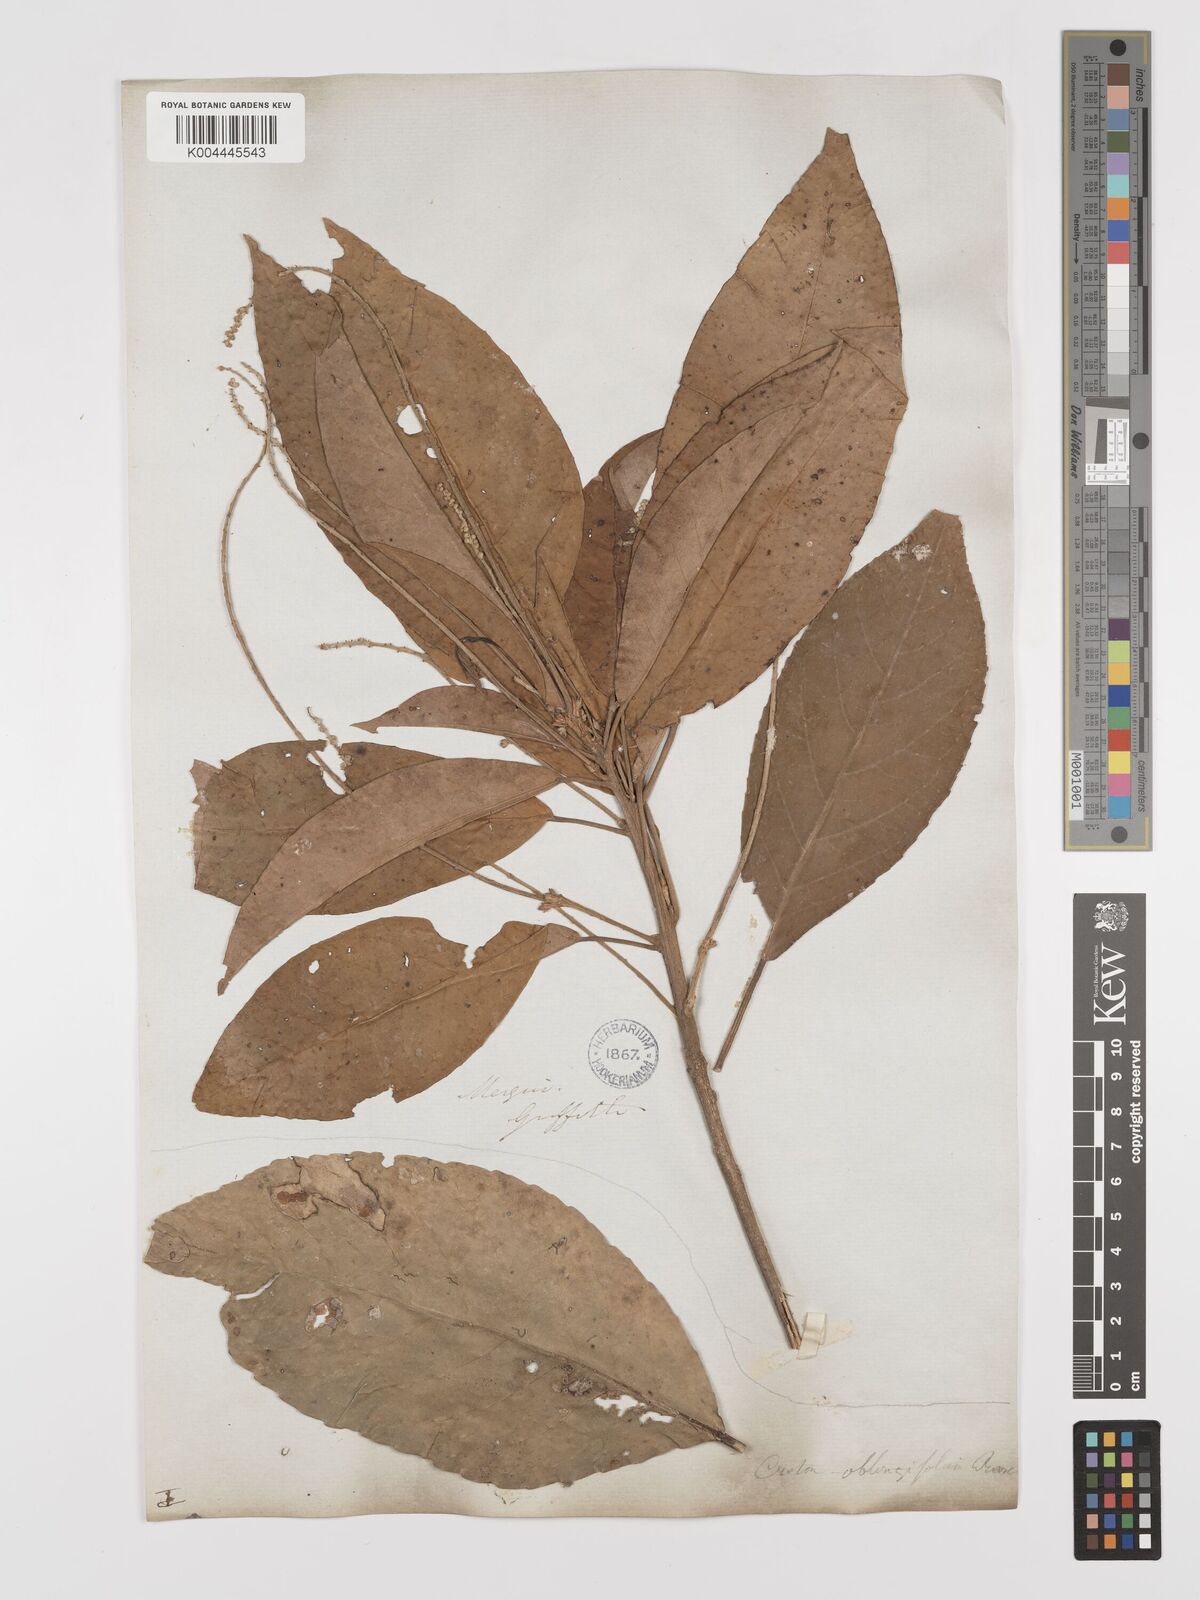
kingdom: Plantae
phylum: Tracheophyta
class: Magnoliopsida
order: Malpighiales
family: Euphorbiaceae
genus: Croton
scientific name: Croton joufra
